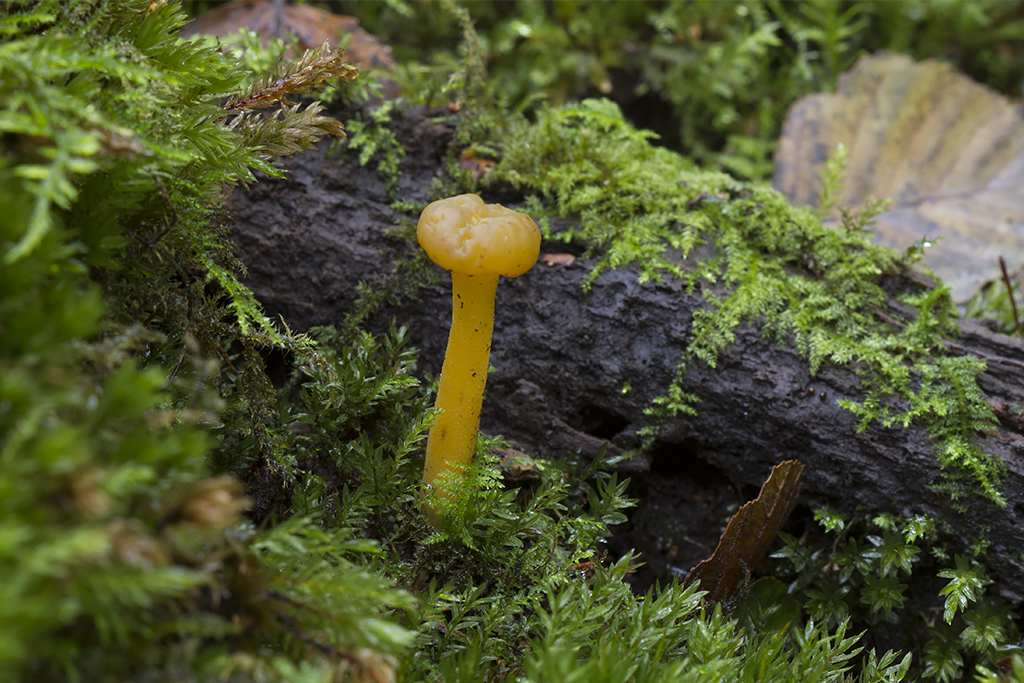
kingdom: Fungi
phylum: Ascomycota
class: Leotiomycetes
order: Leotiales
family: Leotiaceae
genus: Leotia
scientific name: Leotia lubrica
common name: ravsvamp
